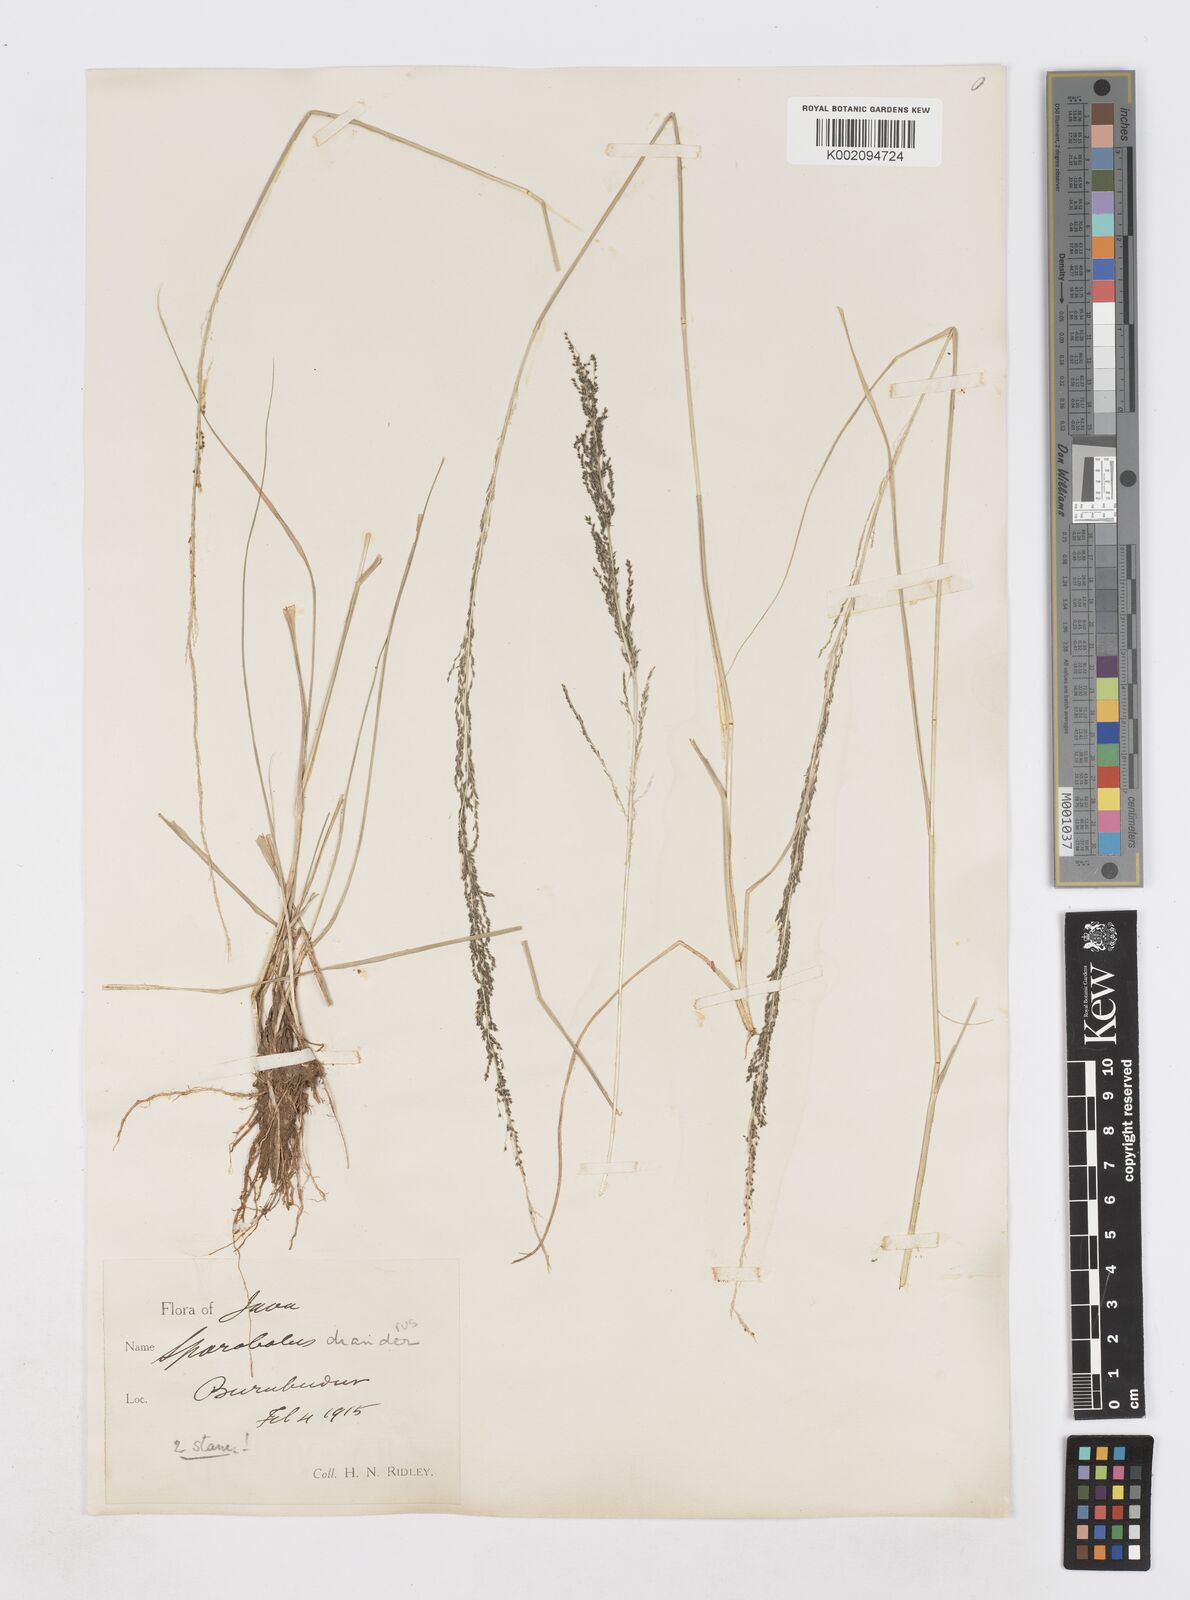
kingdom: Plantae
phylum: Tracheophyta
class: Liliopsida
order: Poales
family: Poaceae
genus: Sporobolus
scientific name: Sporobolus diandrus
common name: Tussock dropseed
